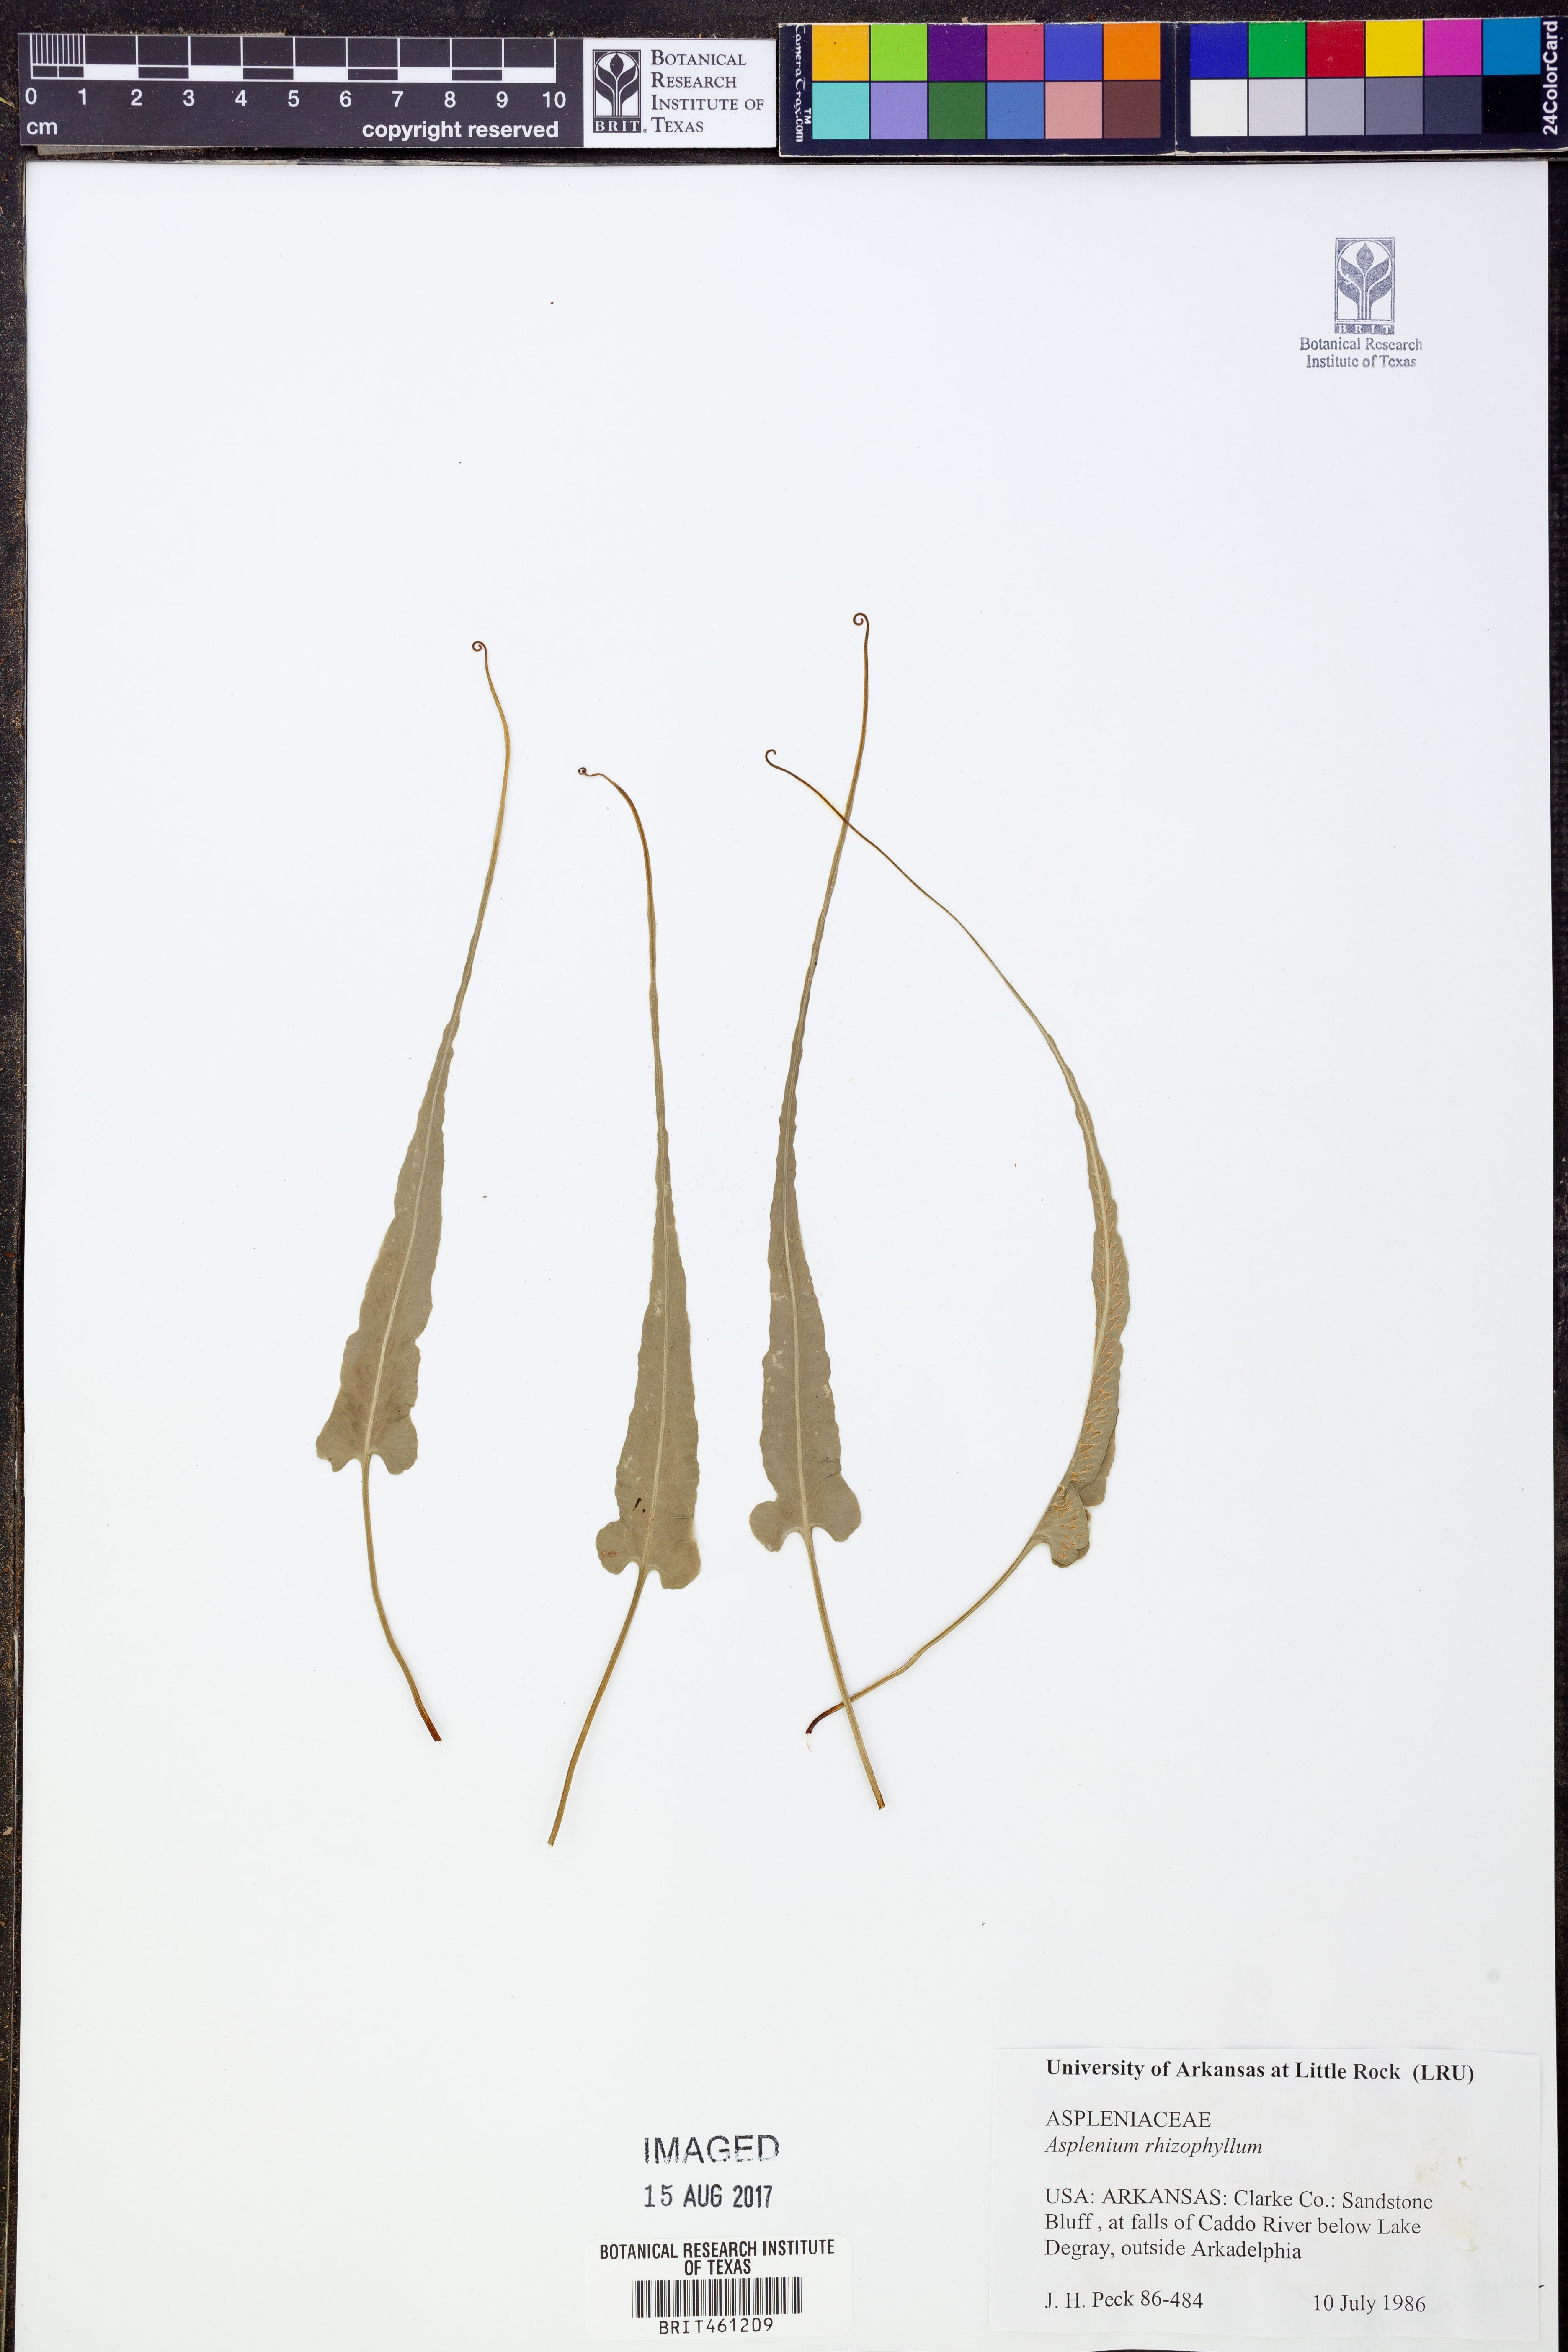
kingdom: Plantae
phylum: Tracheophyta
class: Polypodiopsida
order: Polypodiales
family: Aspleniaceae
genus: Asplenium
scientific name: Asplenium rhizophyllum
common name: Walking fern
